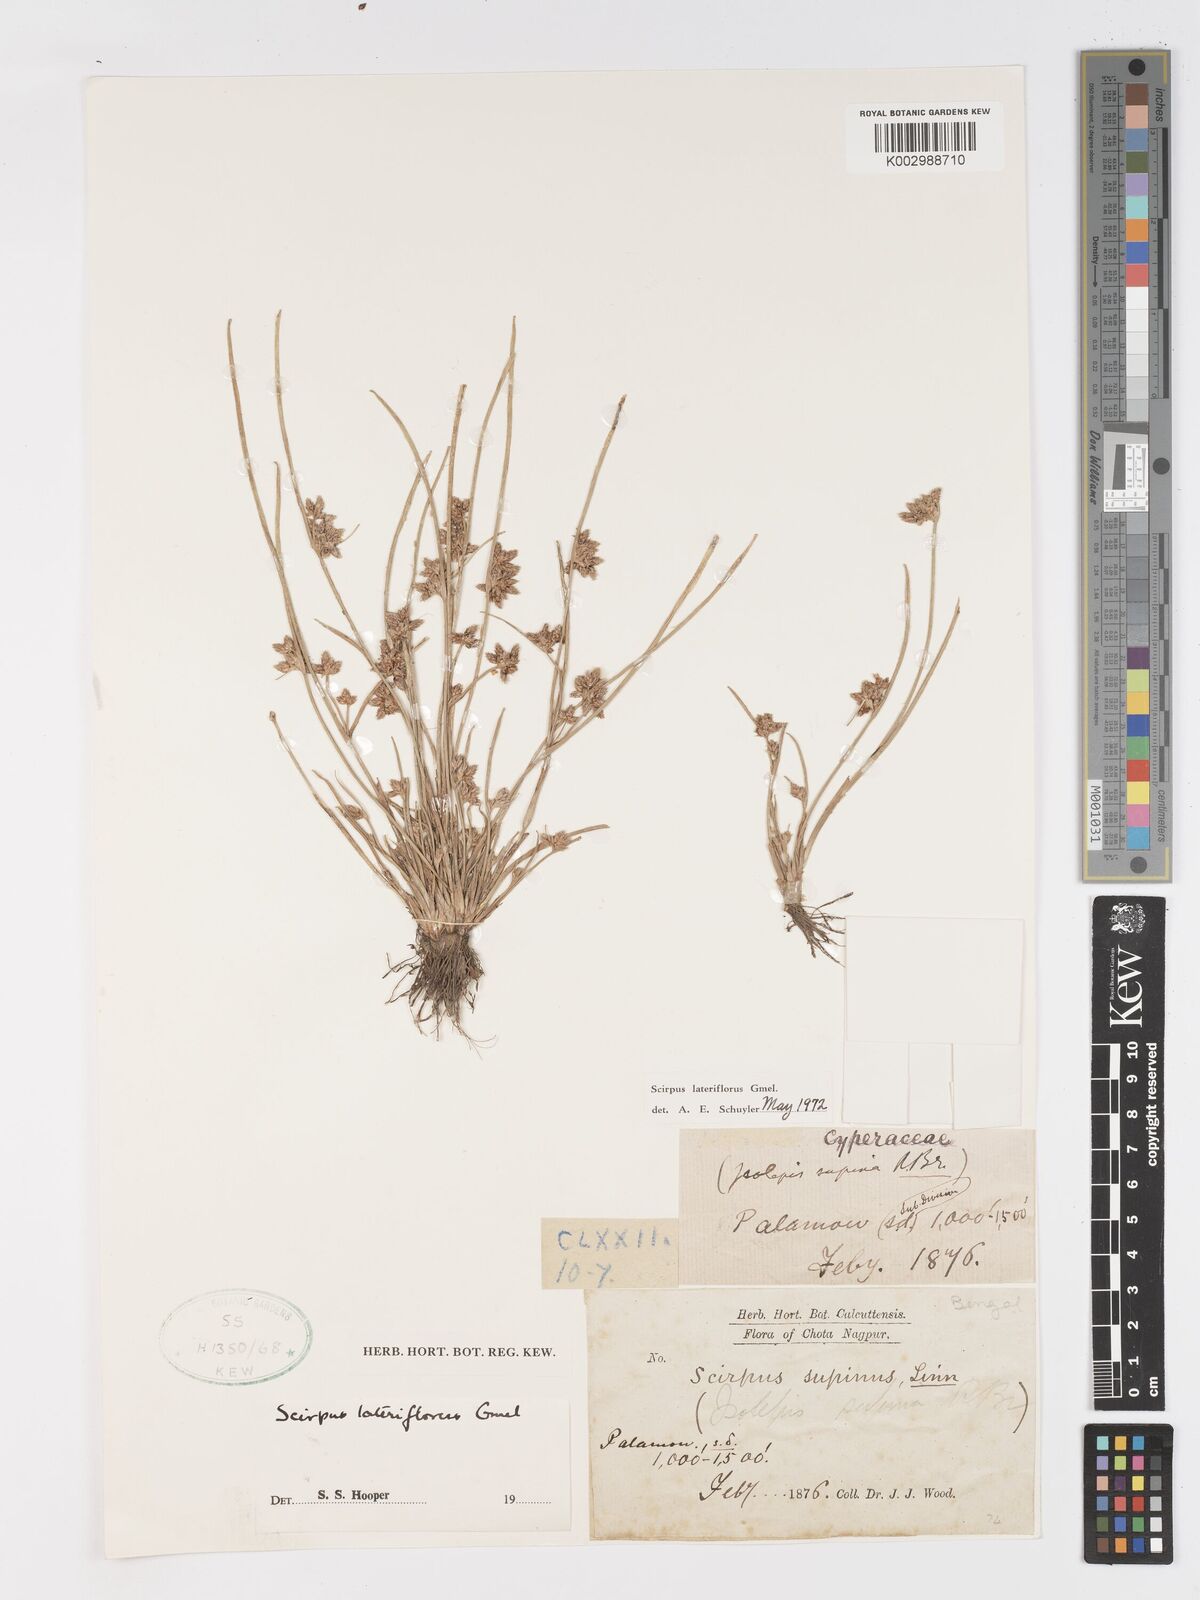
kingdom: Plantae
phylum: Tracheophyta
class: Liliopsida
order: Poales
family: Cyperaceae
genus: Schoenoplectiella
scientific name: Schoenoplectiella lateriflora
